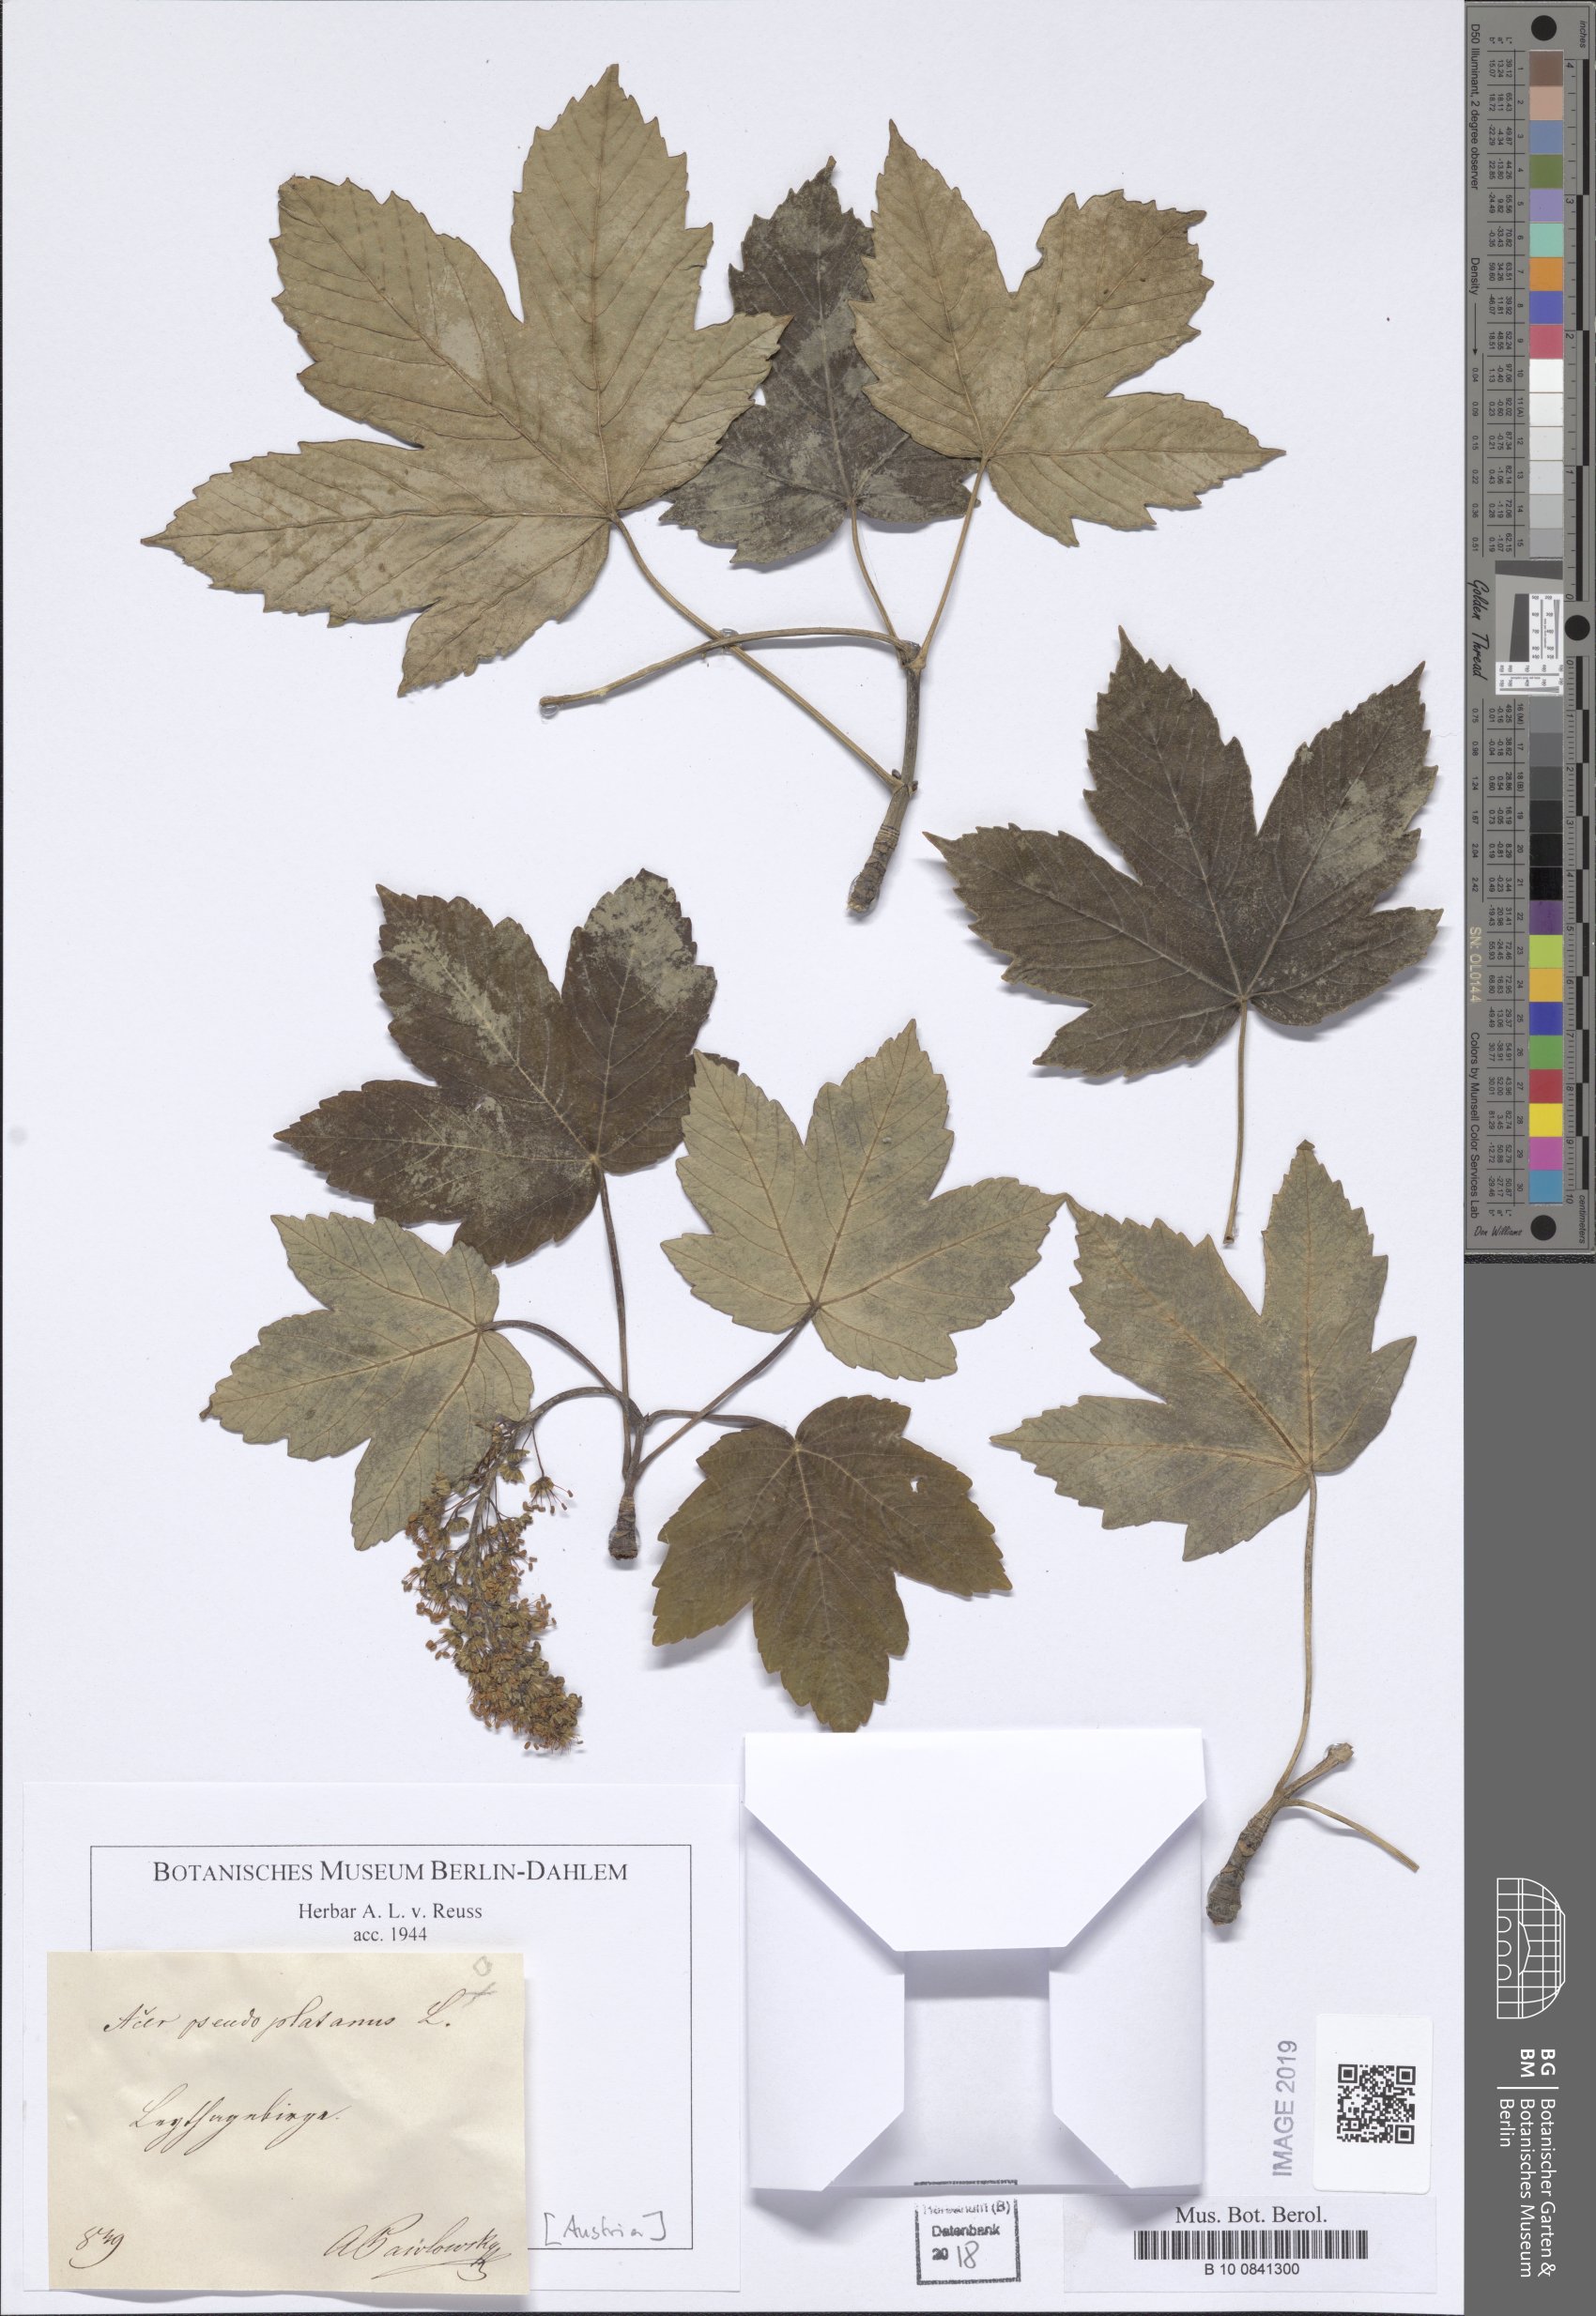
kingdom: Plantae
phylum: Tracheophyta
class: Magnoliopsida
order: Sapindales
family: Sapindaceae
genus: Acer
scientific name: Acer campestre
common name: Field maple
